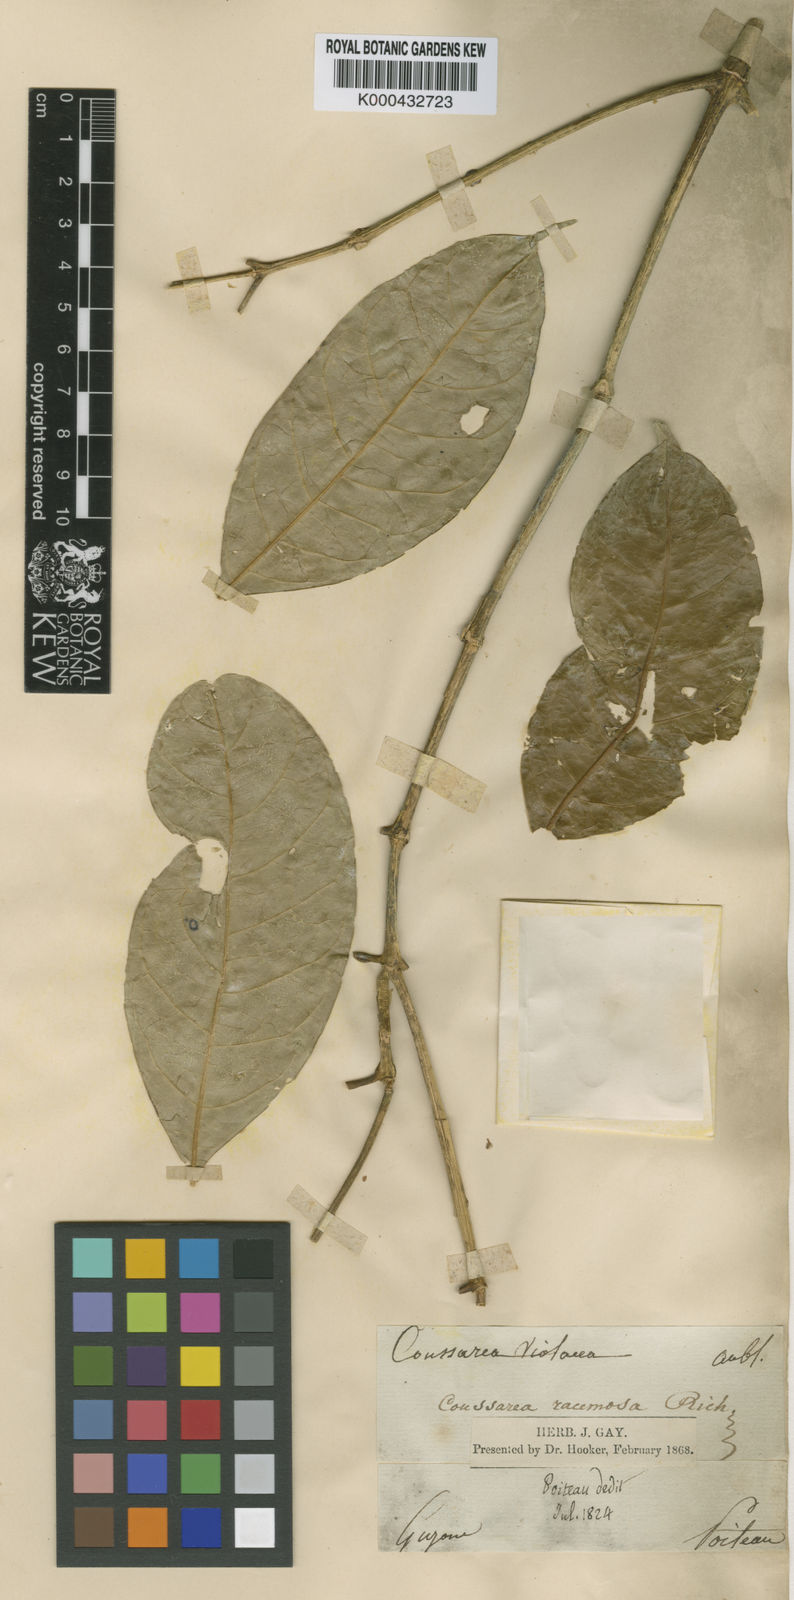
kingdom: Plantae
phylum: Tracheophyta
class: Magnoliopsida
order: Gentianales
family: Rubiaceae
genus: Coussarea
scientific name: Coussarea
